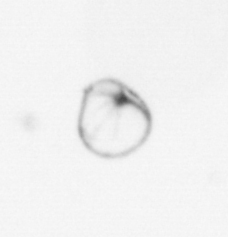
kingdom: Chromista
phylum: Myzozoa
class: Dinophyceae
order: Noctilucales
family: Noctilucaceae
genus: Noctiluca
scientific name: Noctiluca scintillans
